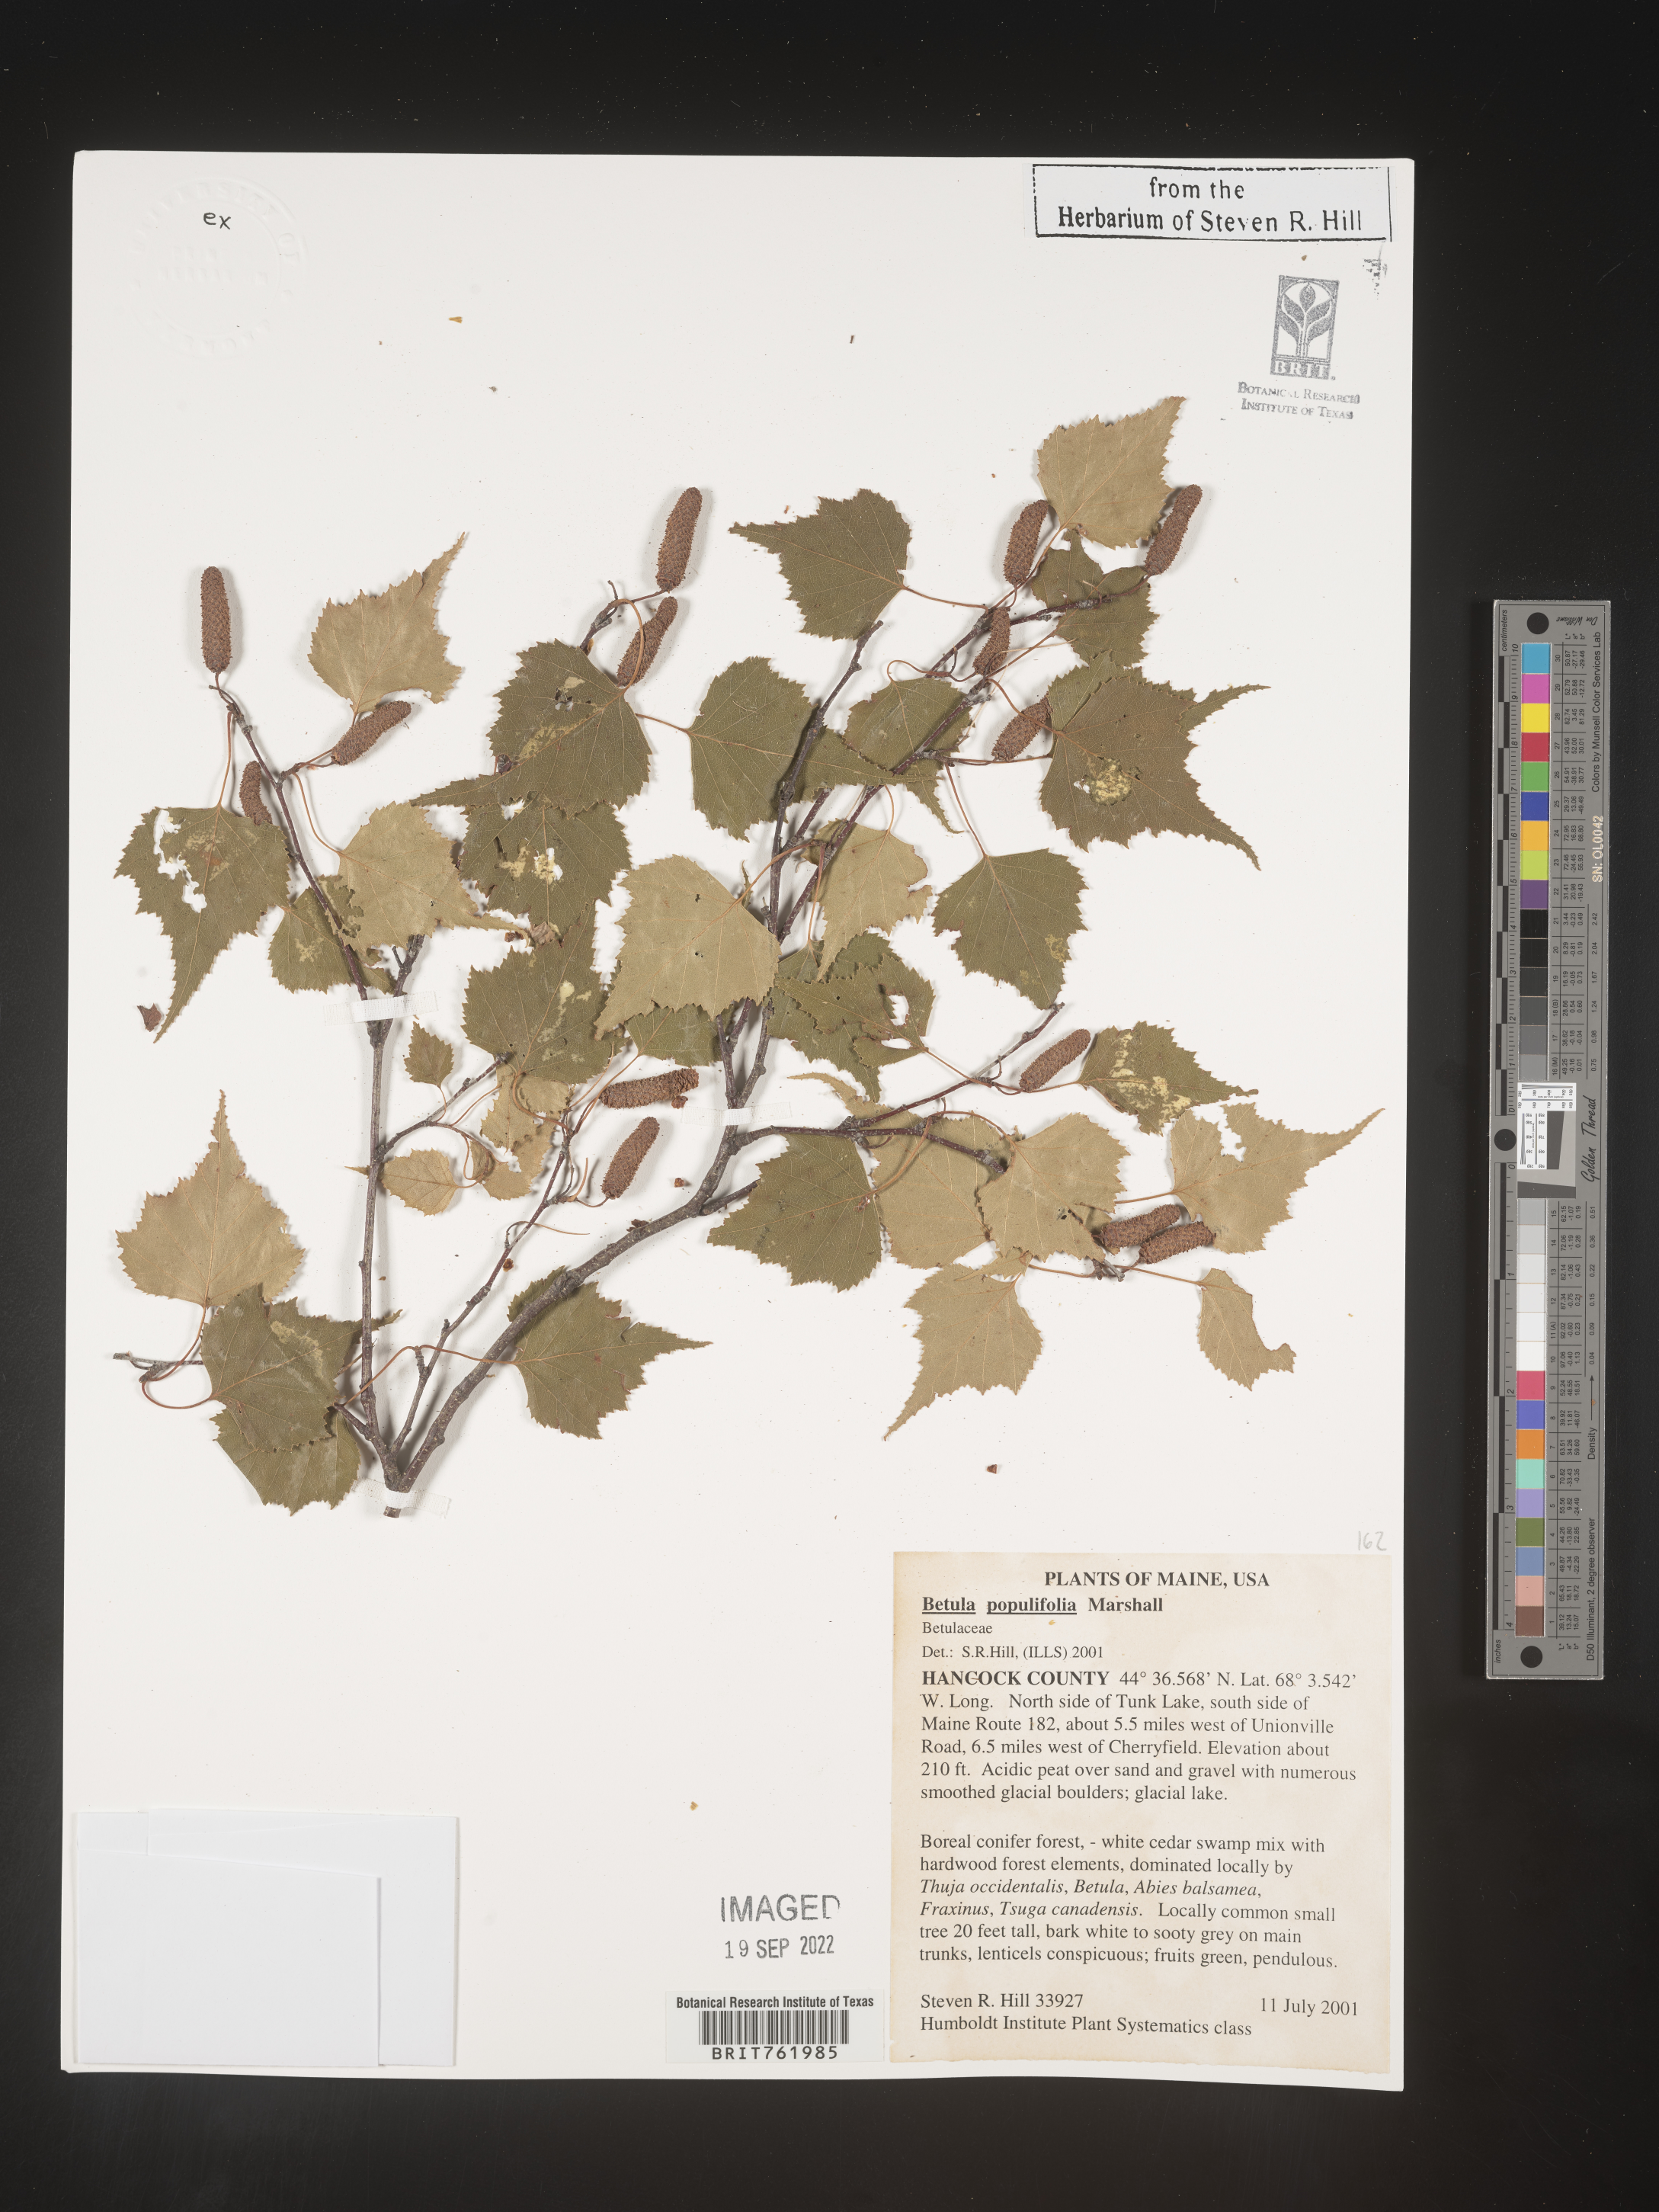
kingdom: Plantae
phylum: Tracheophyta
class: Magnoliopsida
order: Fagales
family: Betulaceae
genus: Betula
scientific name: Betula populifolia
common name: Fire birch
